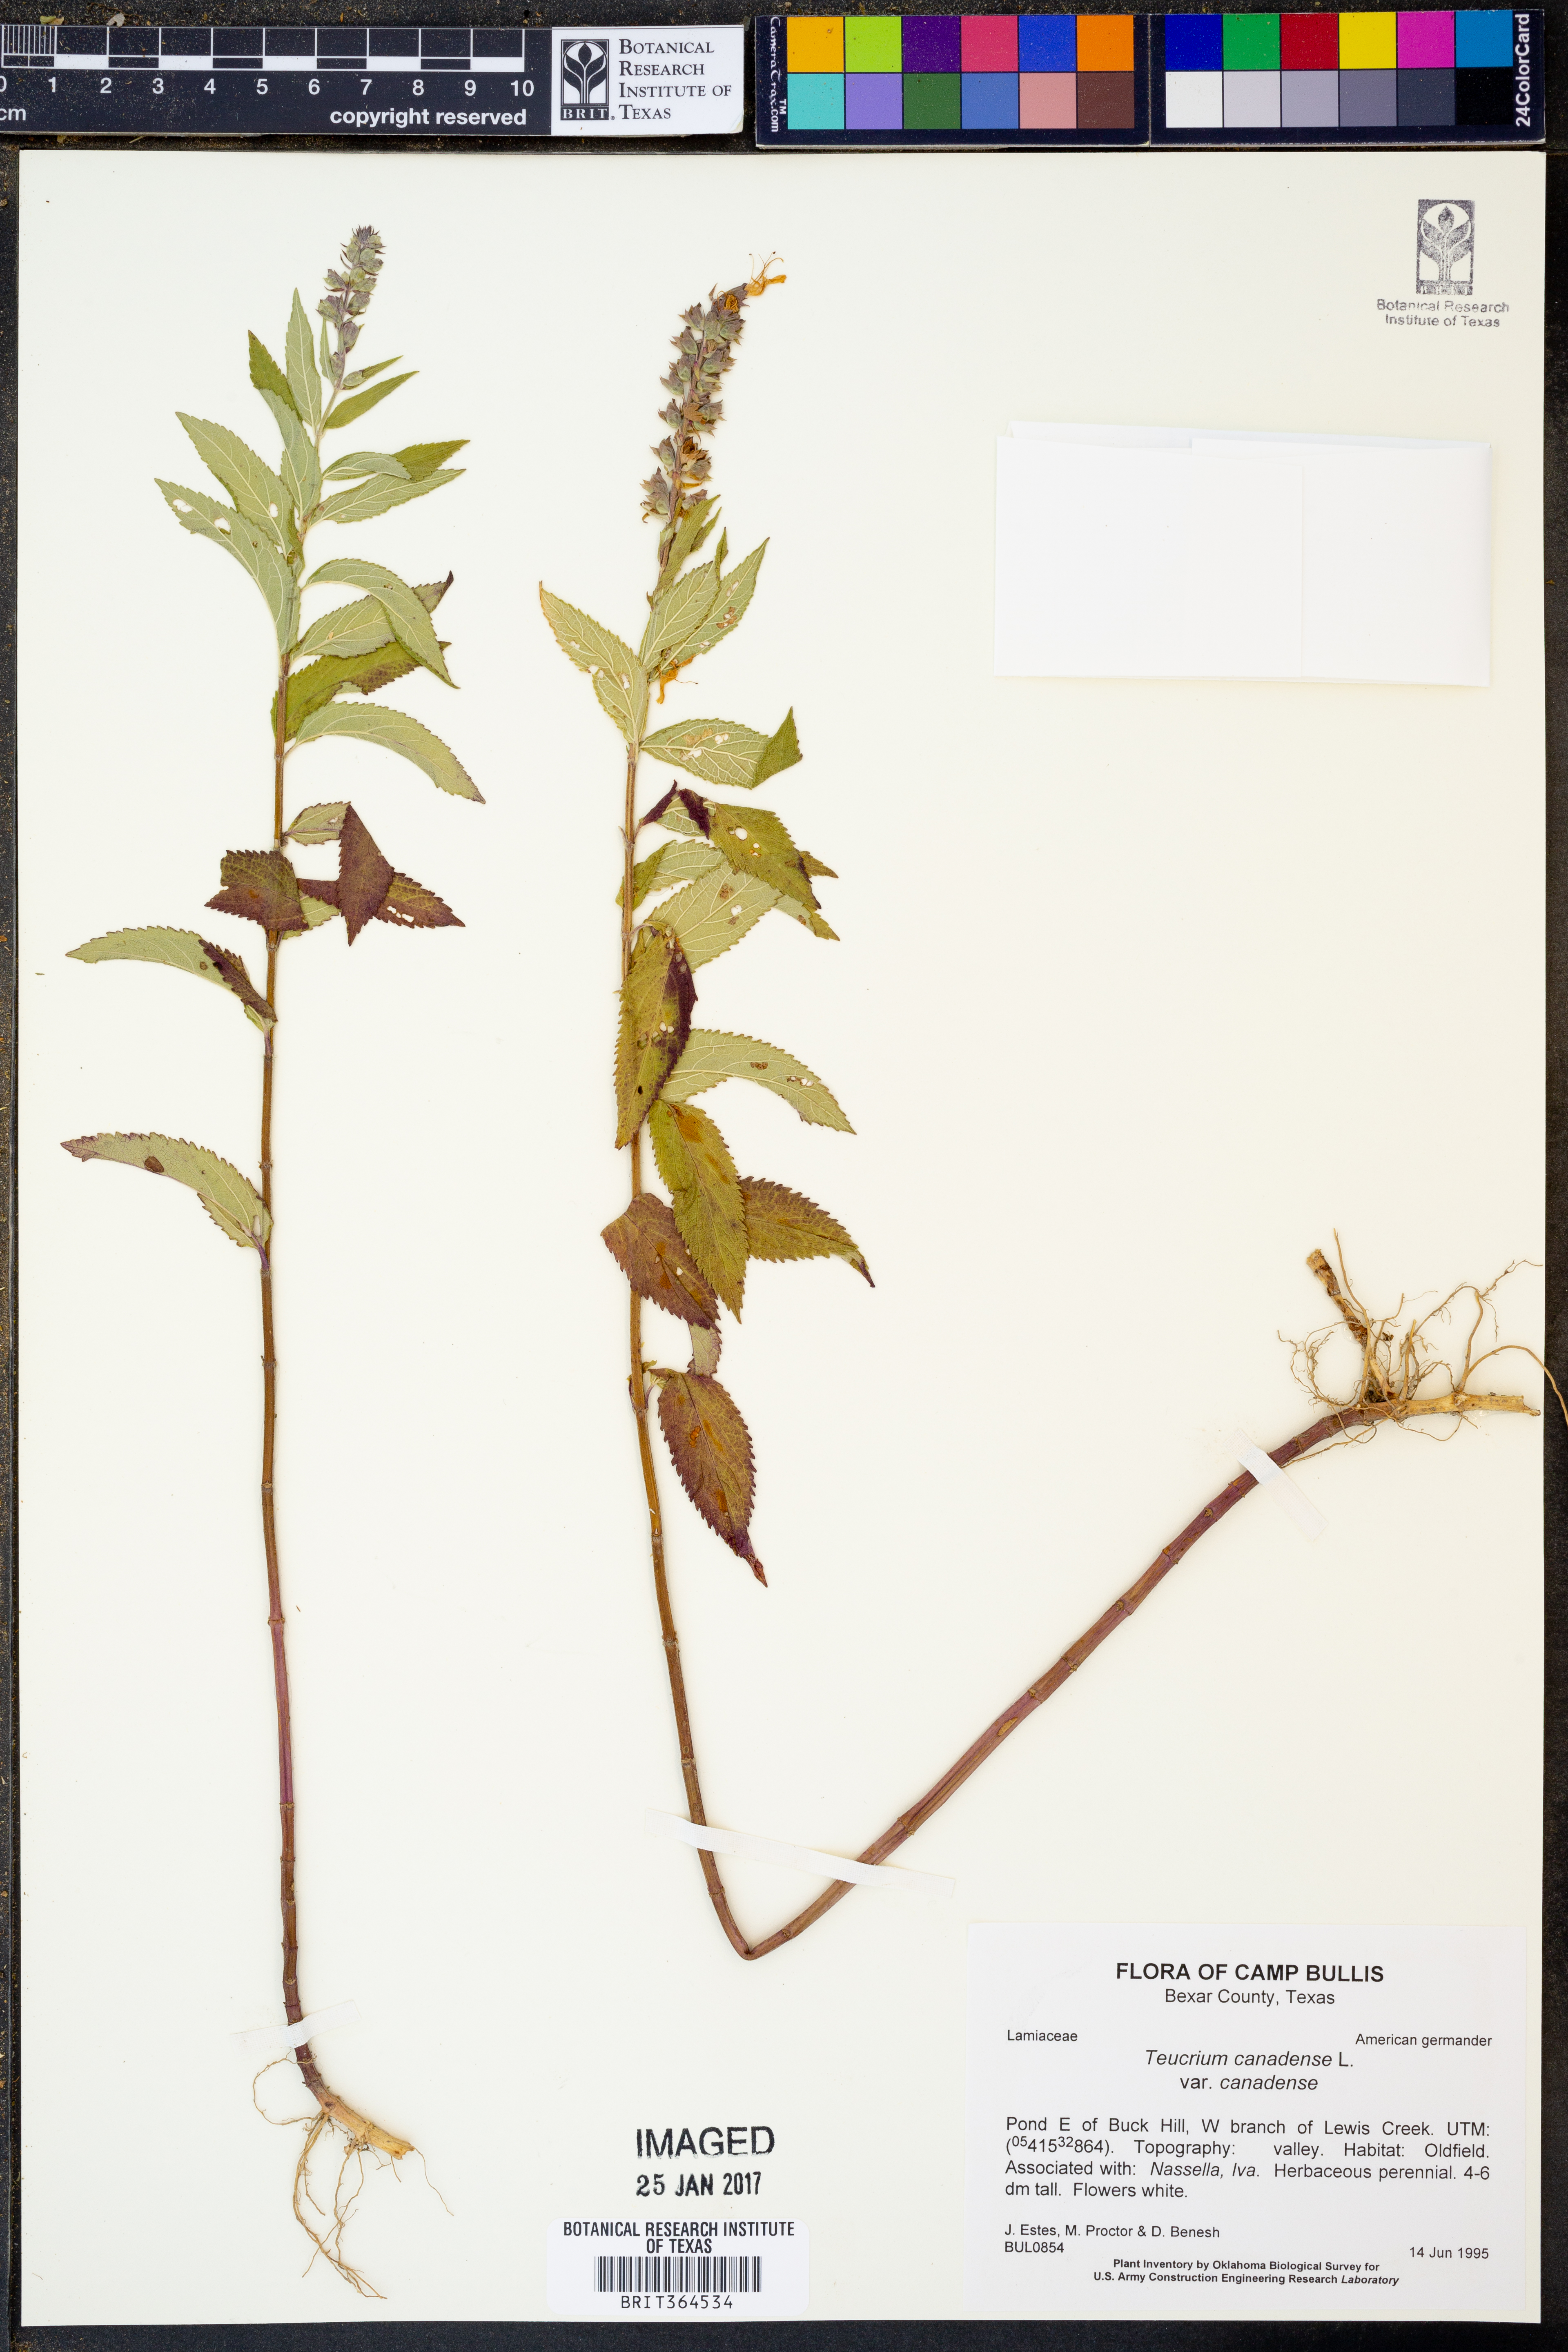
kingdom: Plantae
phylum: Tracheophyta
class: Magnoliopsida
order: Lamiales
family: Lamiaceae
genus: Teucrium
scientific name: Teucrium canadense
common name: American germander
